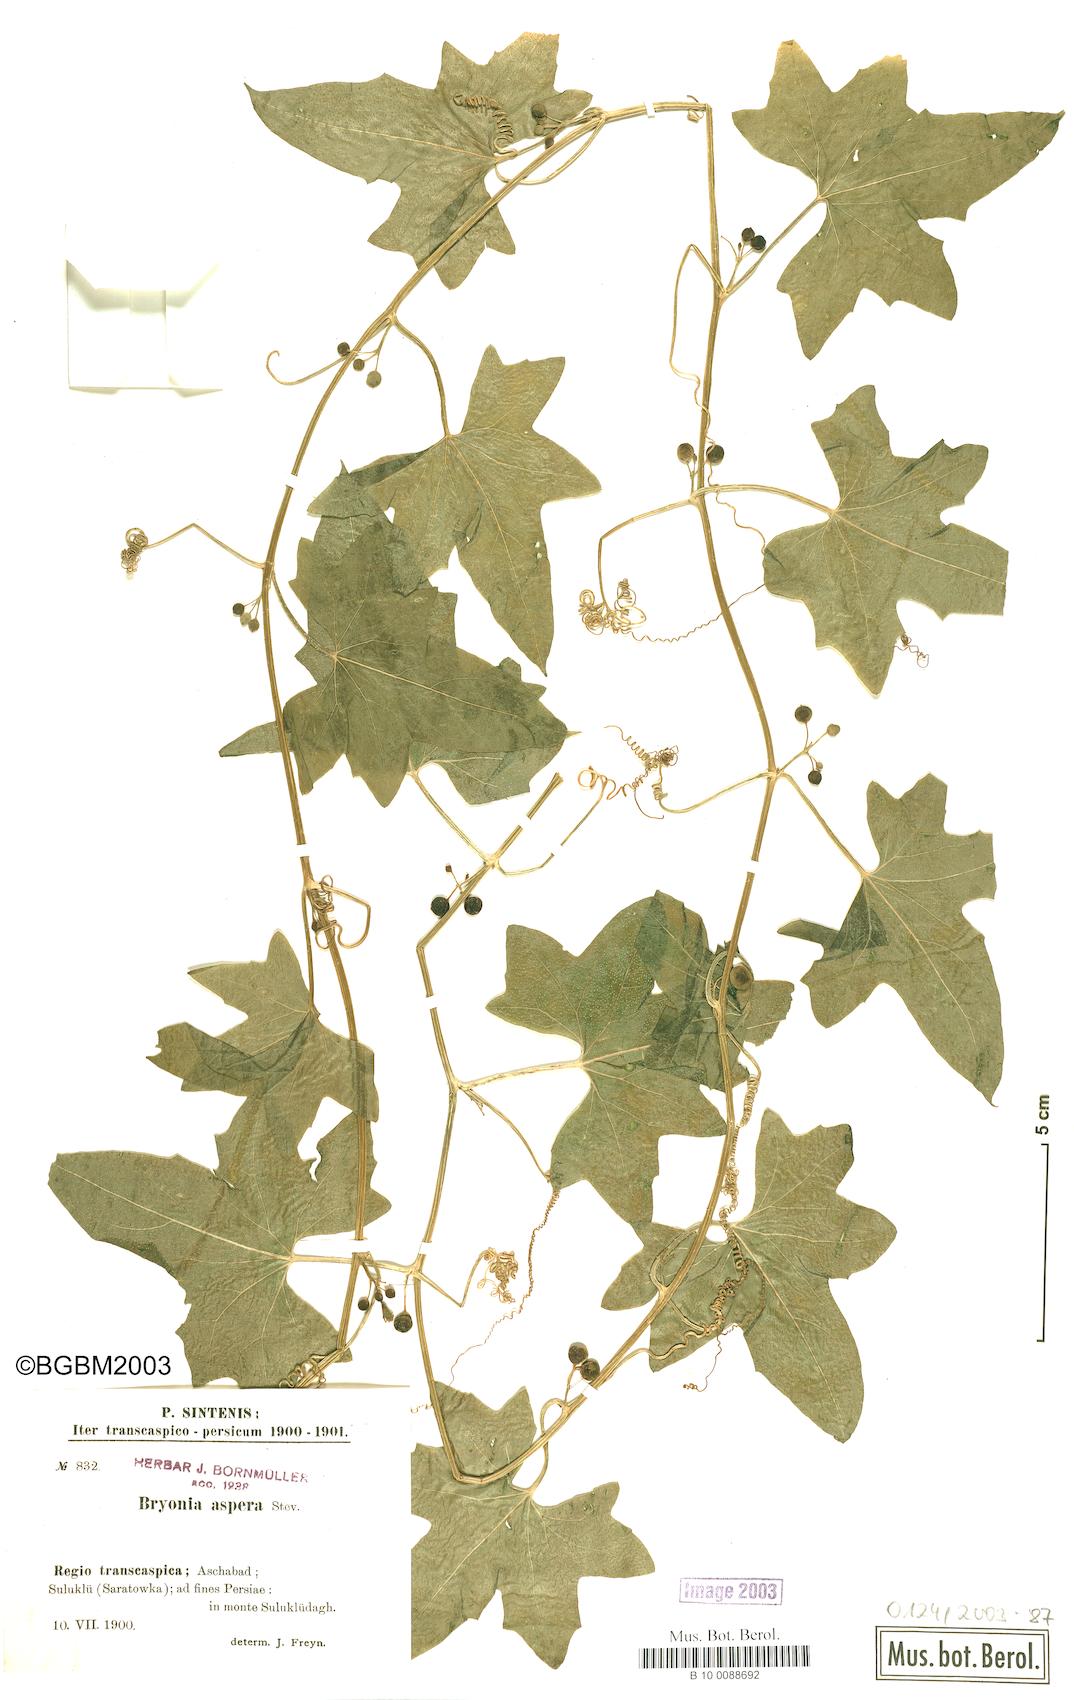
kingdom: Plantae
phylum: Tracheophyta
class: Magnoliopsida
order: Cucurbitales
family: Cucurbitaceae
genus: Bryonia
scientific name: Bryonia aspera
